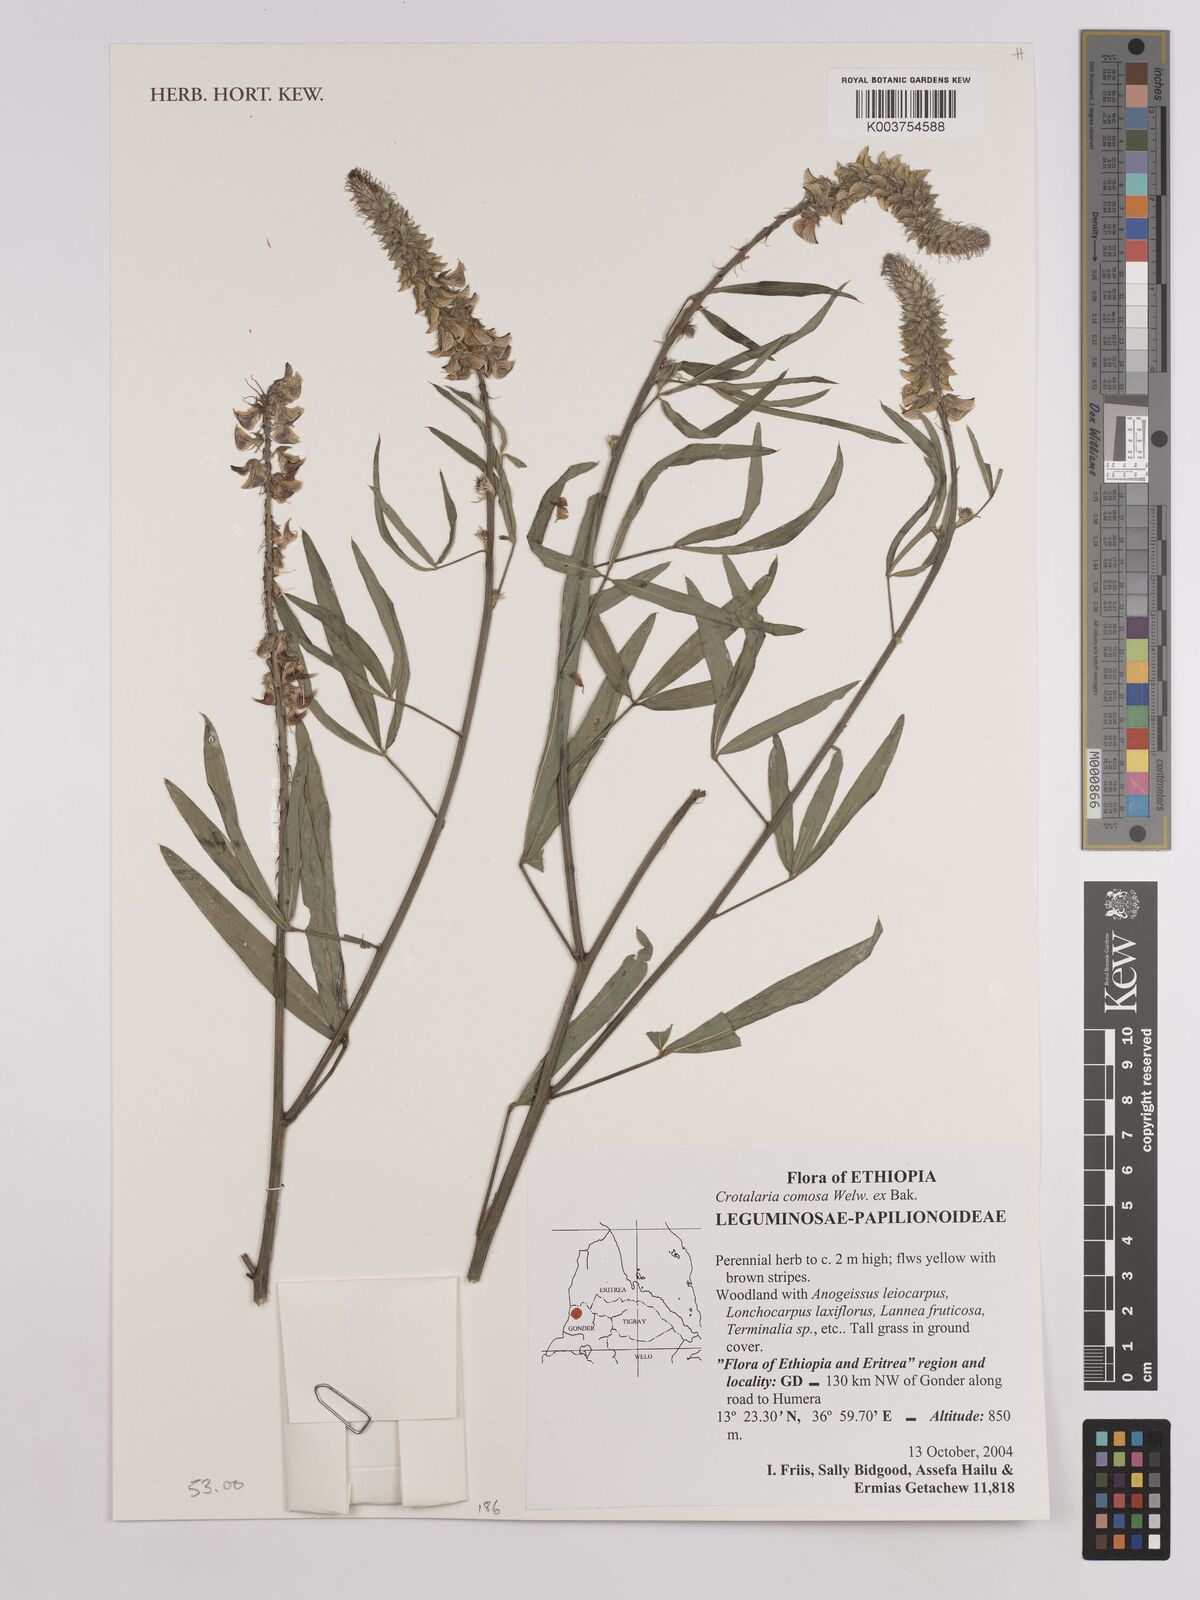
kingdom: Plantae
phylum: Tracheophyta
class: Magnoliopsida
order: Fabales
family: Fabaceae
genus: Crotalaria
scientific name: Crotalaria comosa
